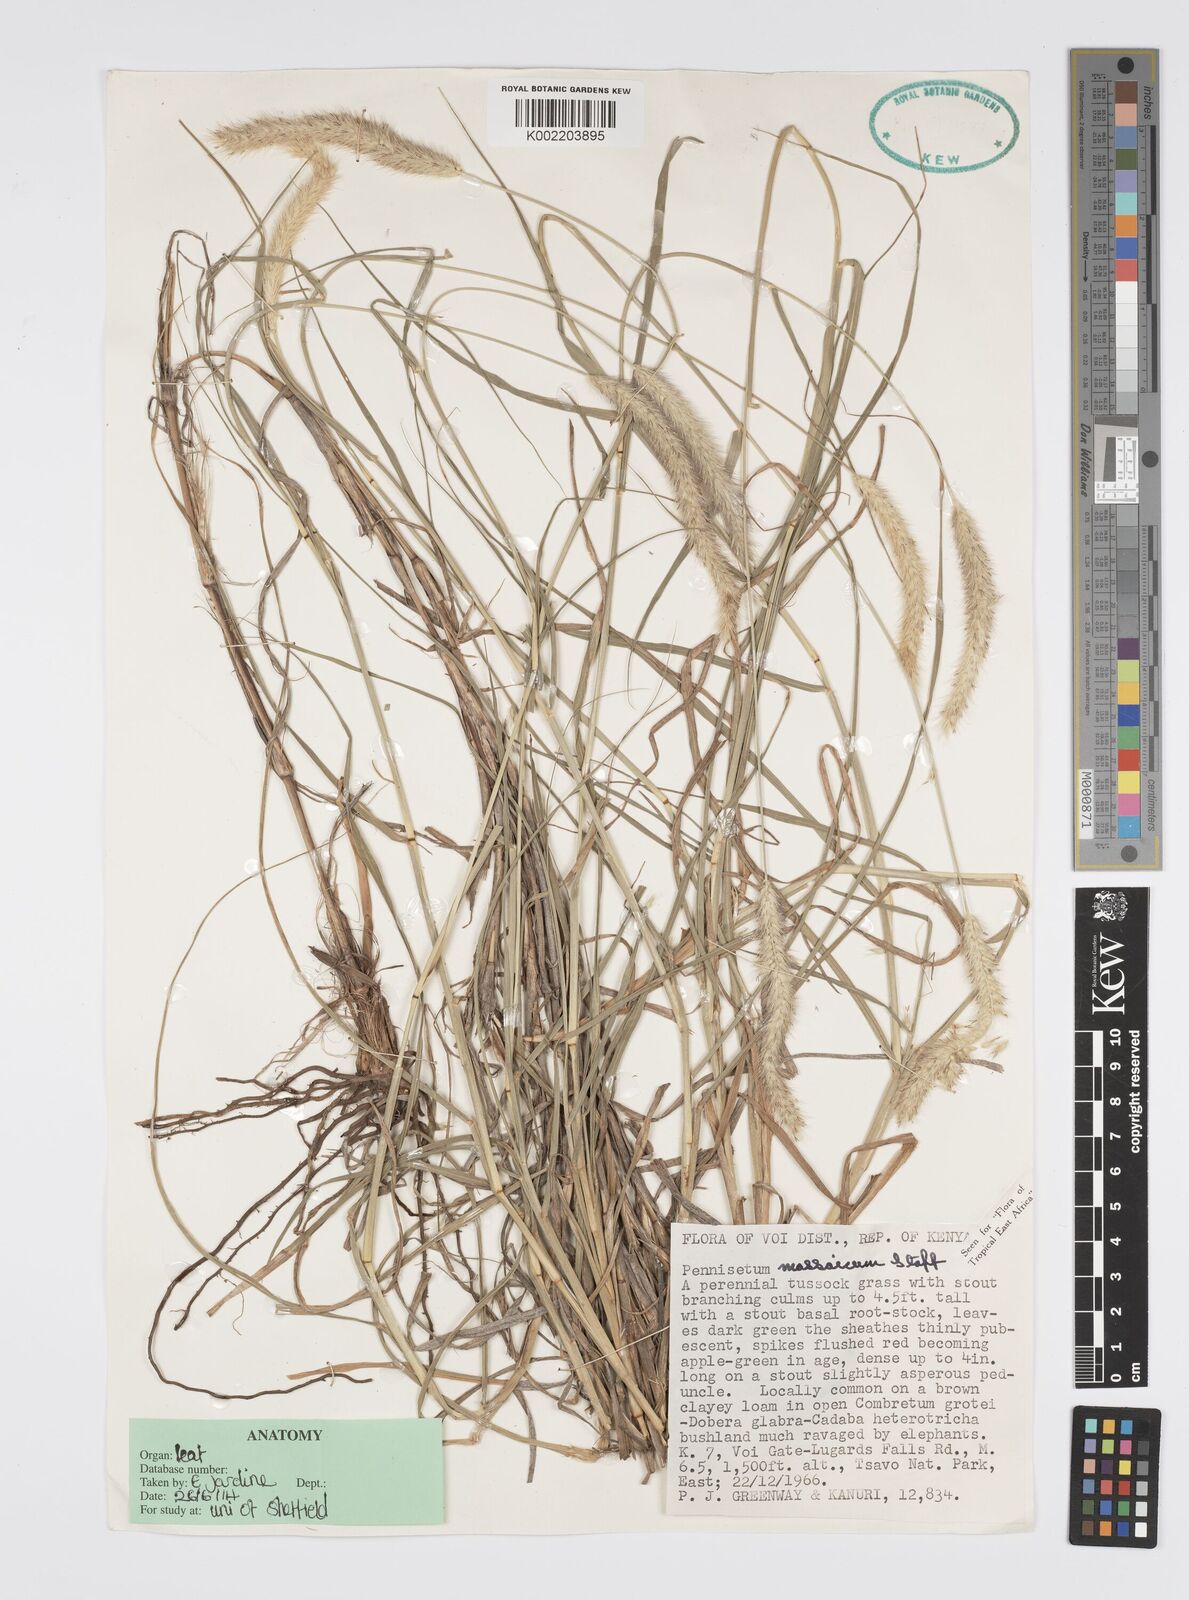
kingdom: Plantae
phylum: Tracheophyta
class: Liliopsida
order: Poales
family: Poaceae
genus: Cenchrus
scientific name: Cenchrus massaicus
